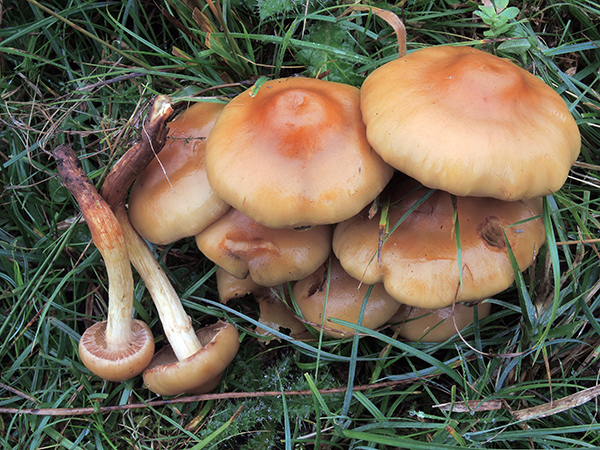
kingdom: Fungi
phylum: Basidiomycota
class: Agaricomycetes
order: Agaricales
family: Strophariaceae
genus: Pholiota
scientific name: Pholiota pinicola
